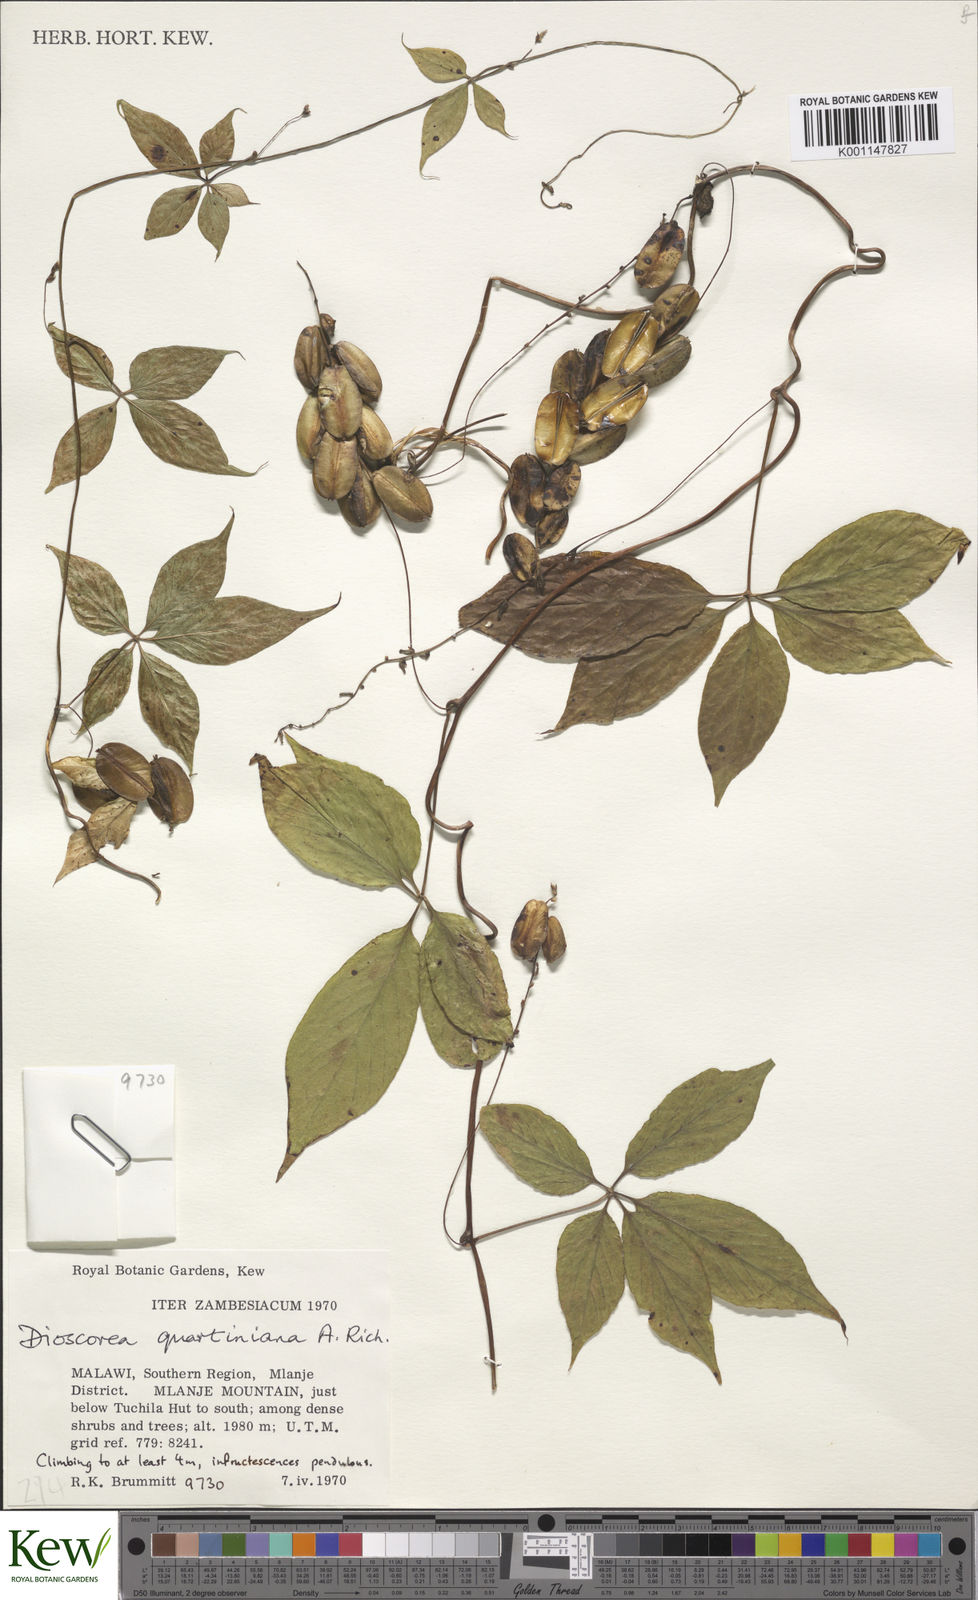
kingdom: Plantae
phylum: Tracheophyta
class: Liliopsida
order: Dioscoreales
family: Dioscoreaceae
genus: Dioscorea
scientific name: Dioscorea quartiniana
